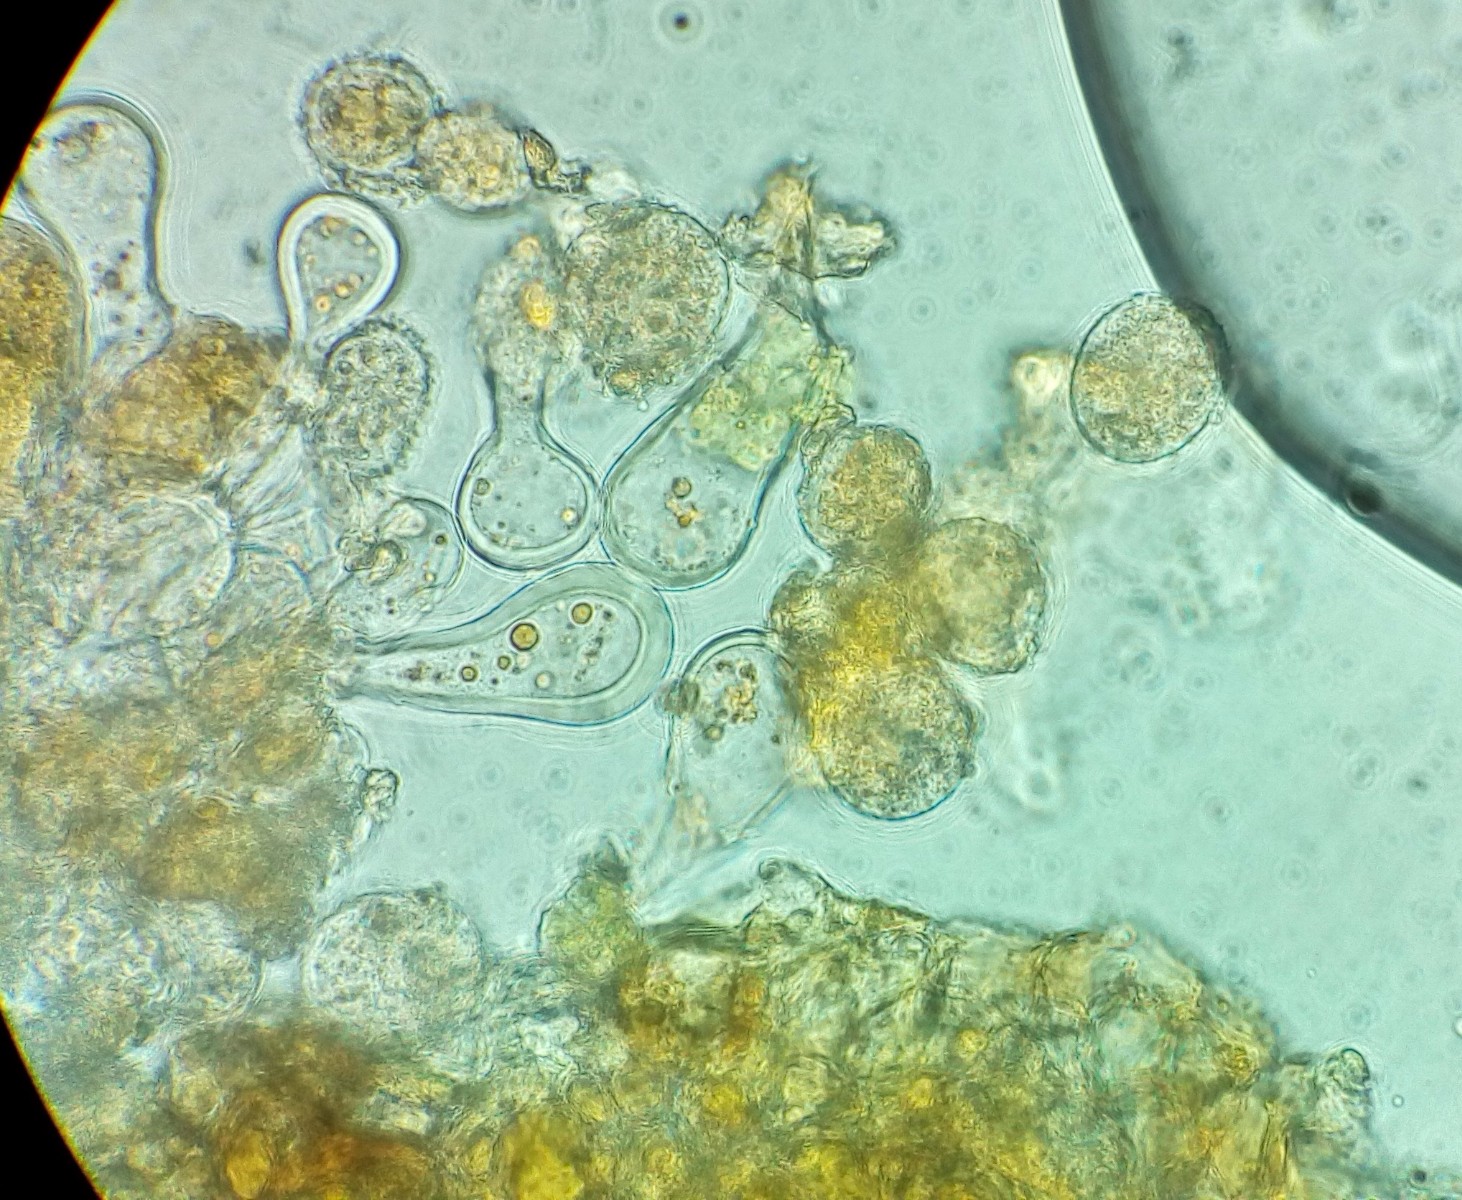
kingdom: Fungi
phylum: Basidiomycota
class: Pucciniomycetes
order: Pucciniales
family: Melampsoraceae
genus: Melampsora
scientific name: Melampsora epitea
